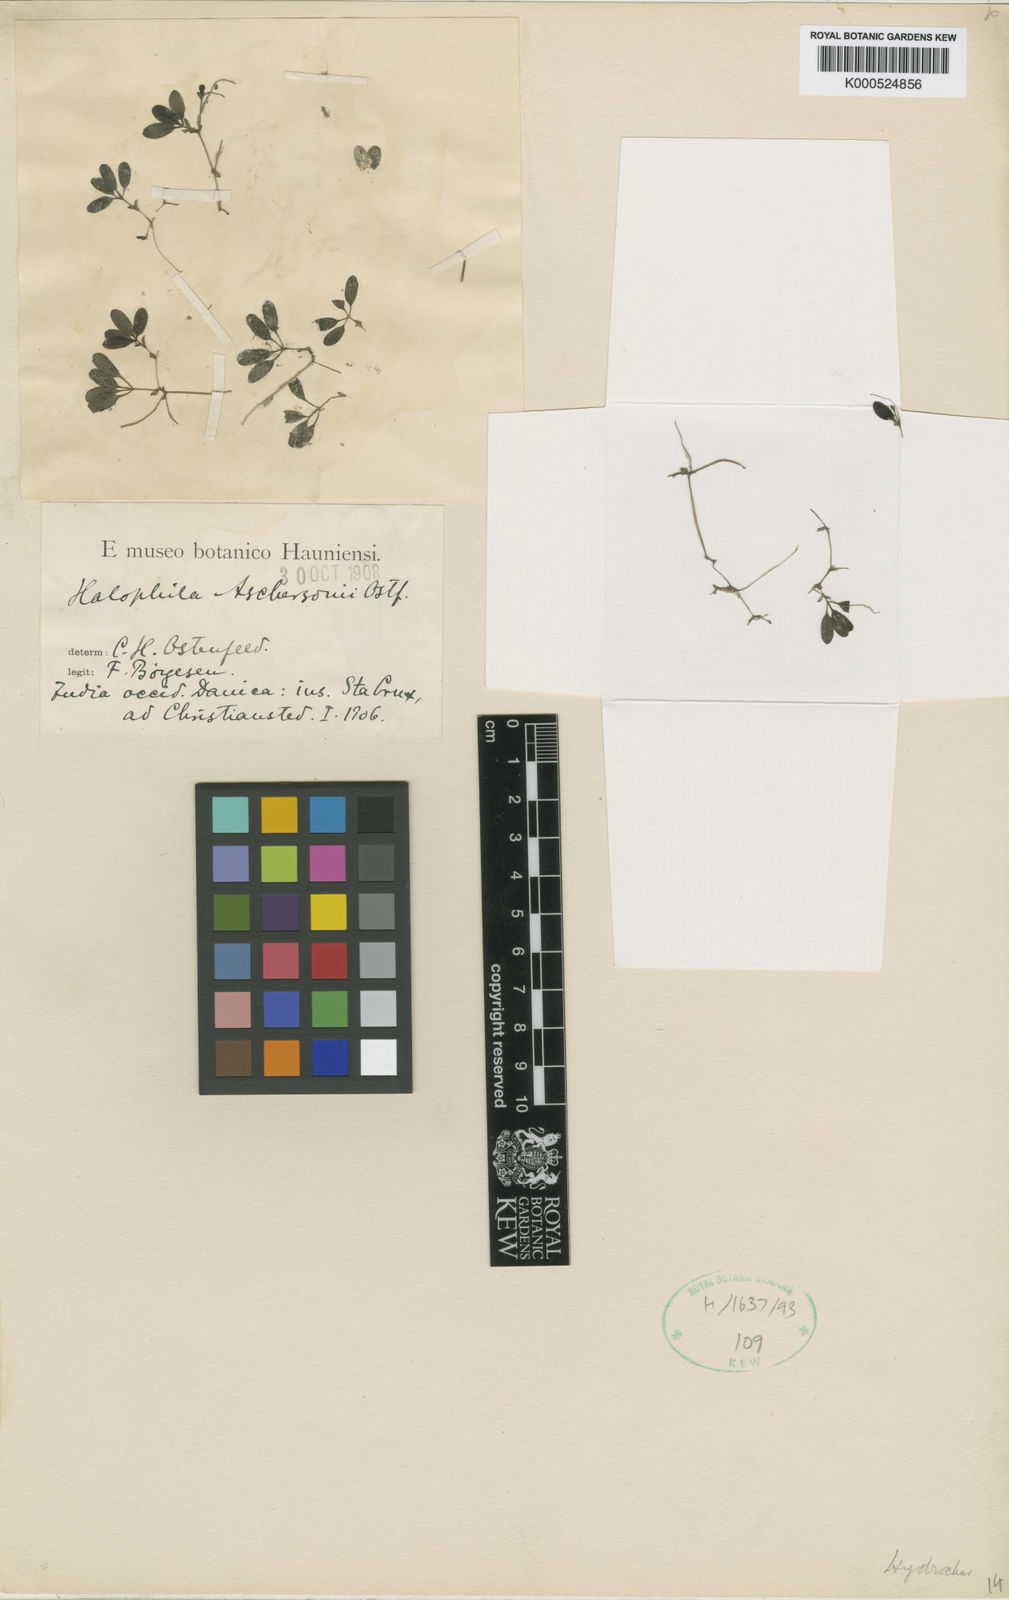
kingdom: Plantae
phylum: Tracheophyta
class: Liliopsida
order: Alismatales
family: Hydrocharitaceae
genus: Halophila
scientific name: Halophila baillonis
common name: Tapegrass
